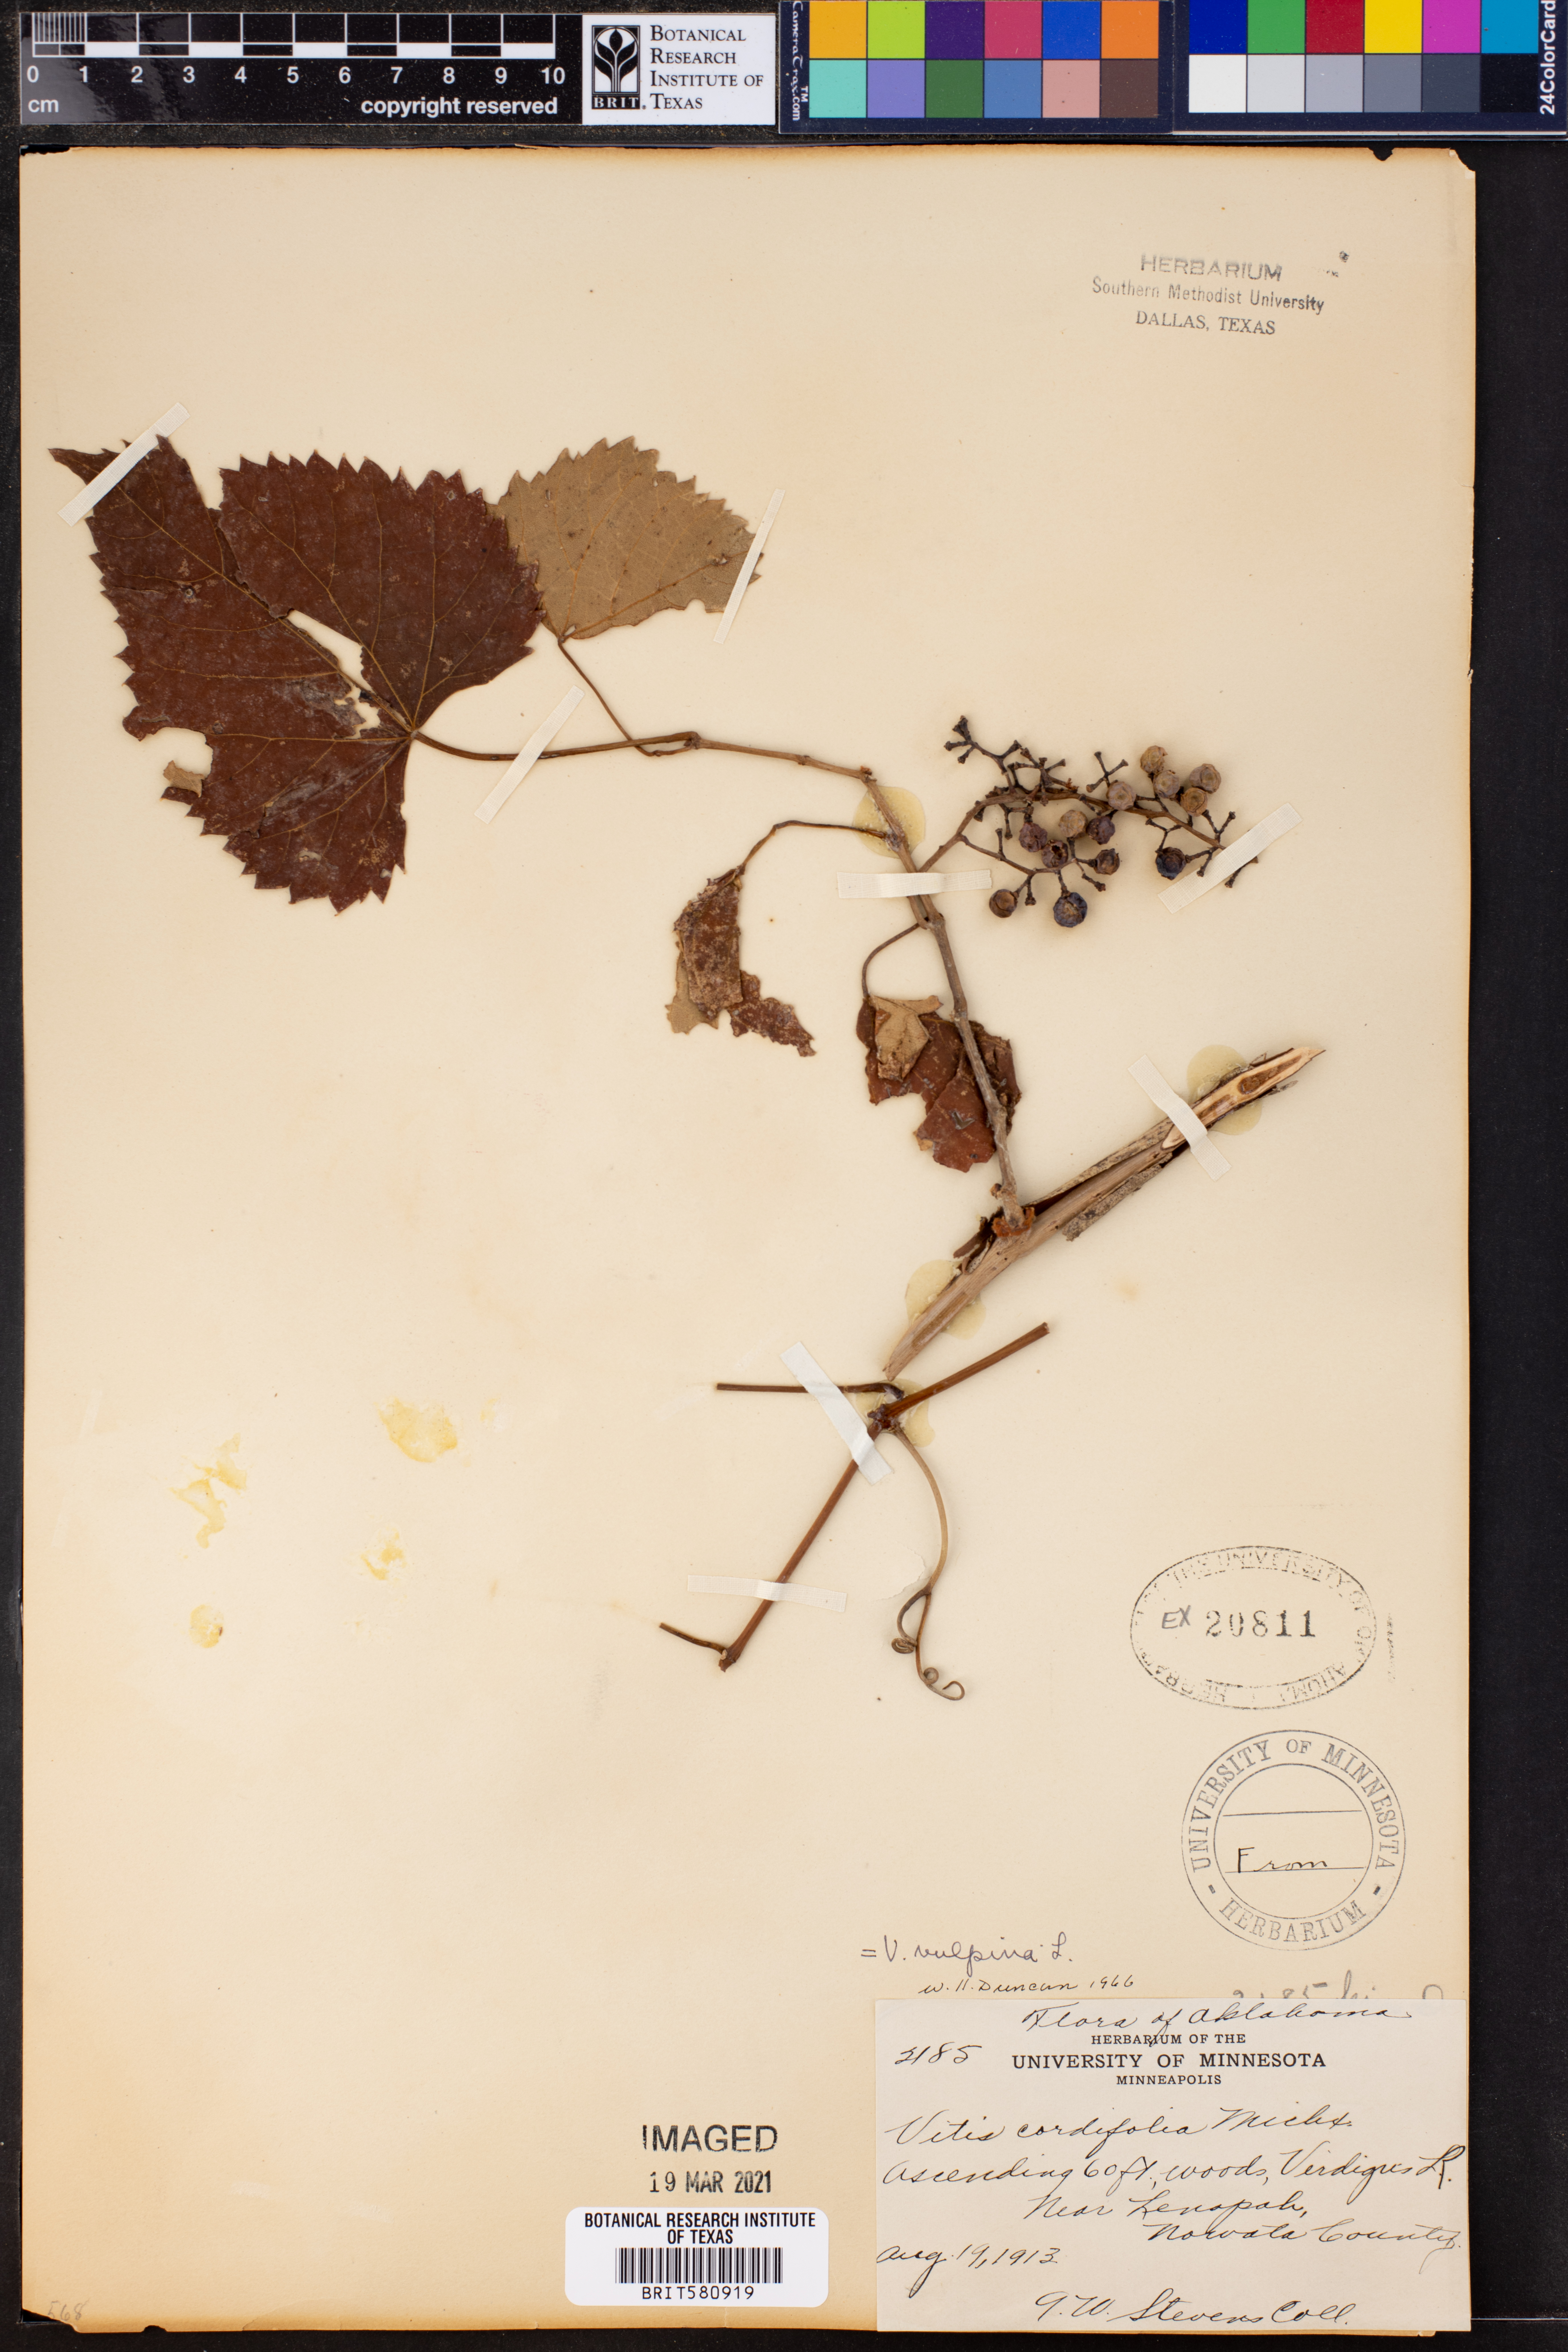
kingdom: Plantae
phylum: Tracheophyta
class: Magnoliopsida
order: Vitales
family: Vitaceae
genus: Vitis
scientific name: Vitis vulpina
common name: Frost grape
